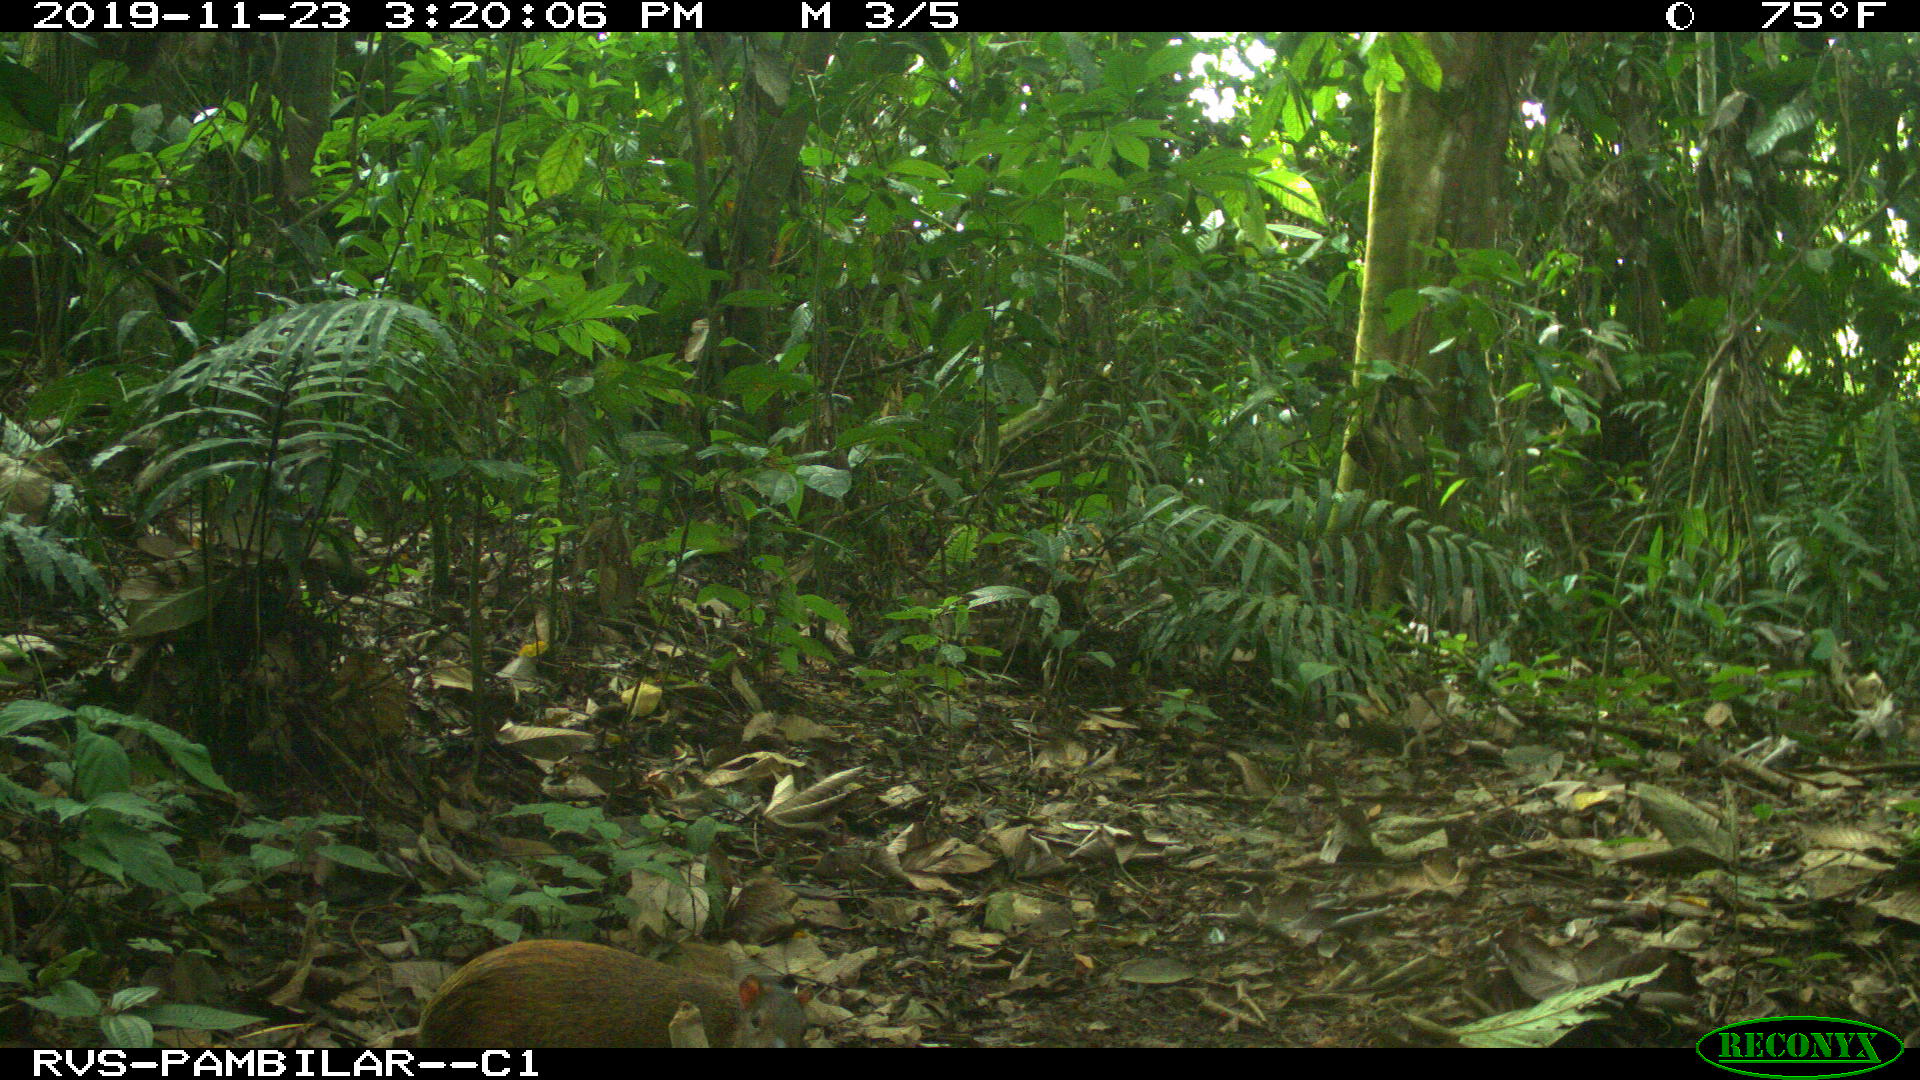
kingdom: Animalia
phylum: Chordata
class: Mammalia
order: Rodentia
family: Dasyproctidae
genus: Dasyprocta
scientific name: Dasyprocta punctata
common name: Central american agouti
